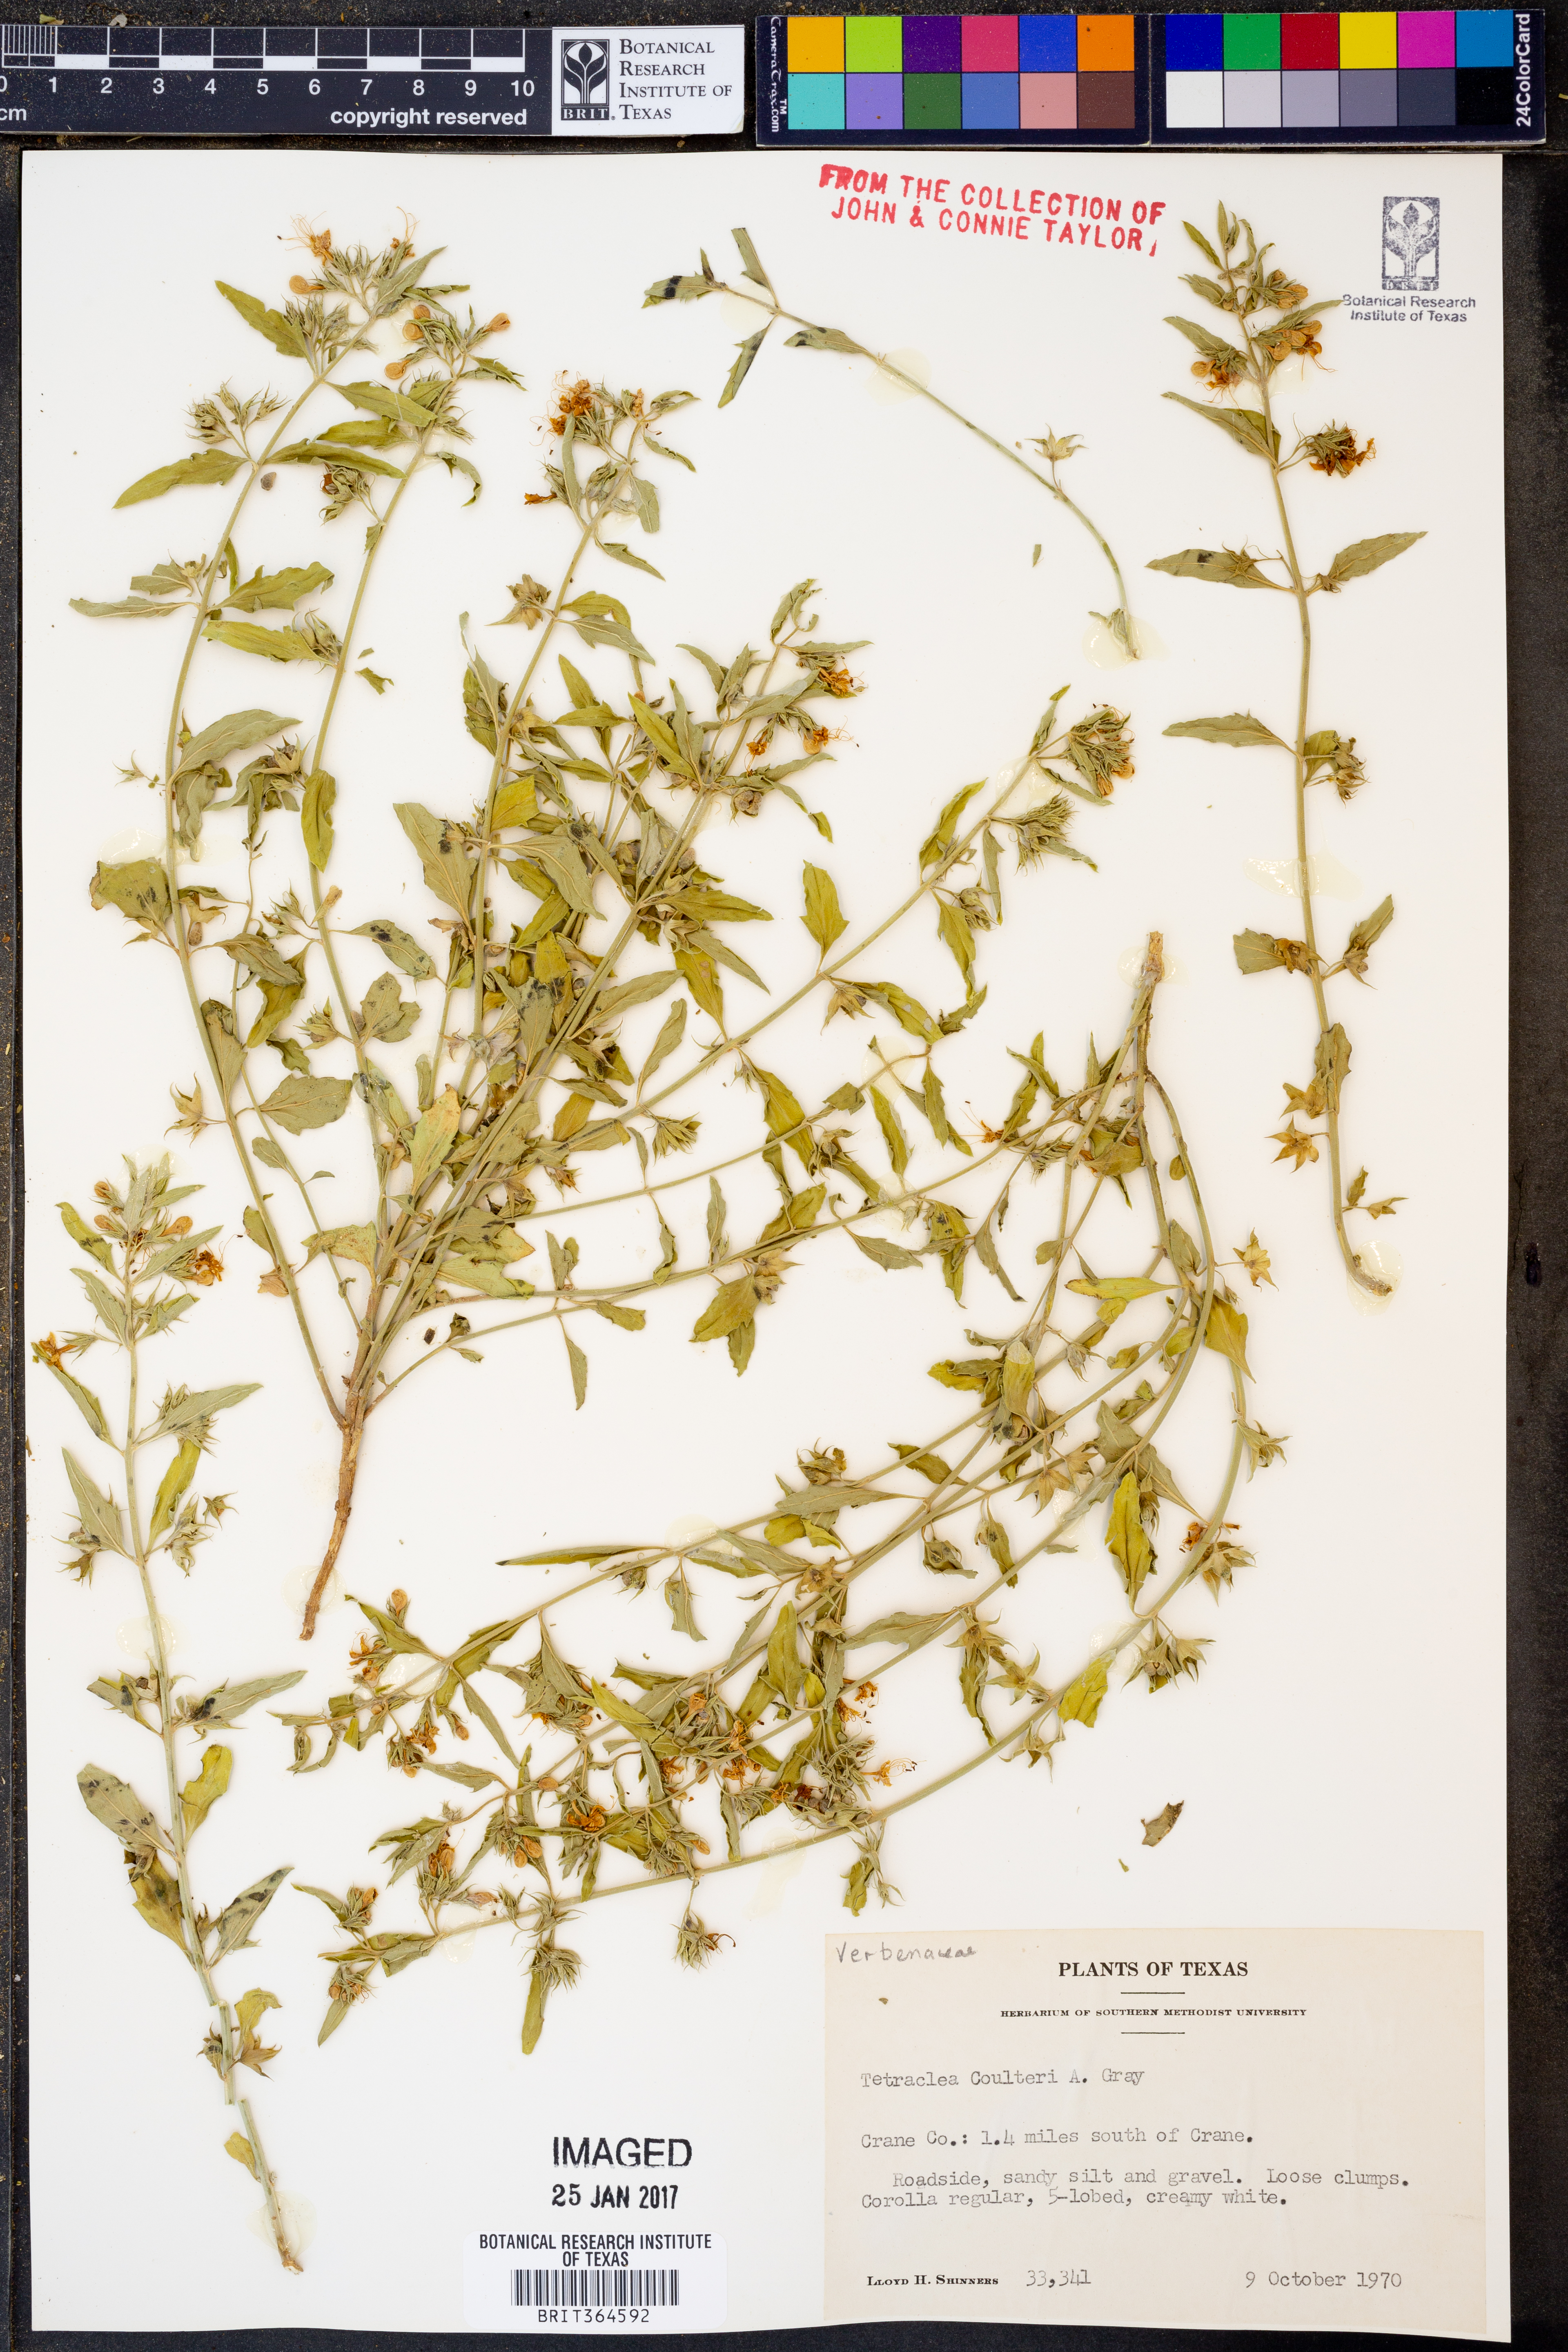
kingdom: Plantae
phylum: Tracheophyta
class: Magnoliopsida
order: Lamiales
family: Lamiaceae
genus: Tetraclea
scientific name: Tetraclea coulteri
